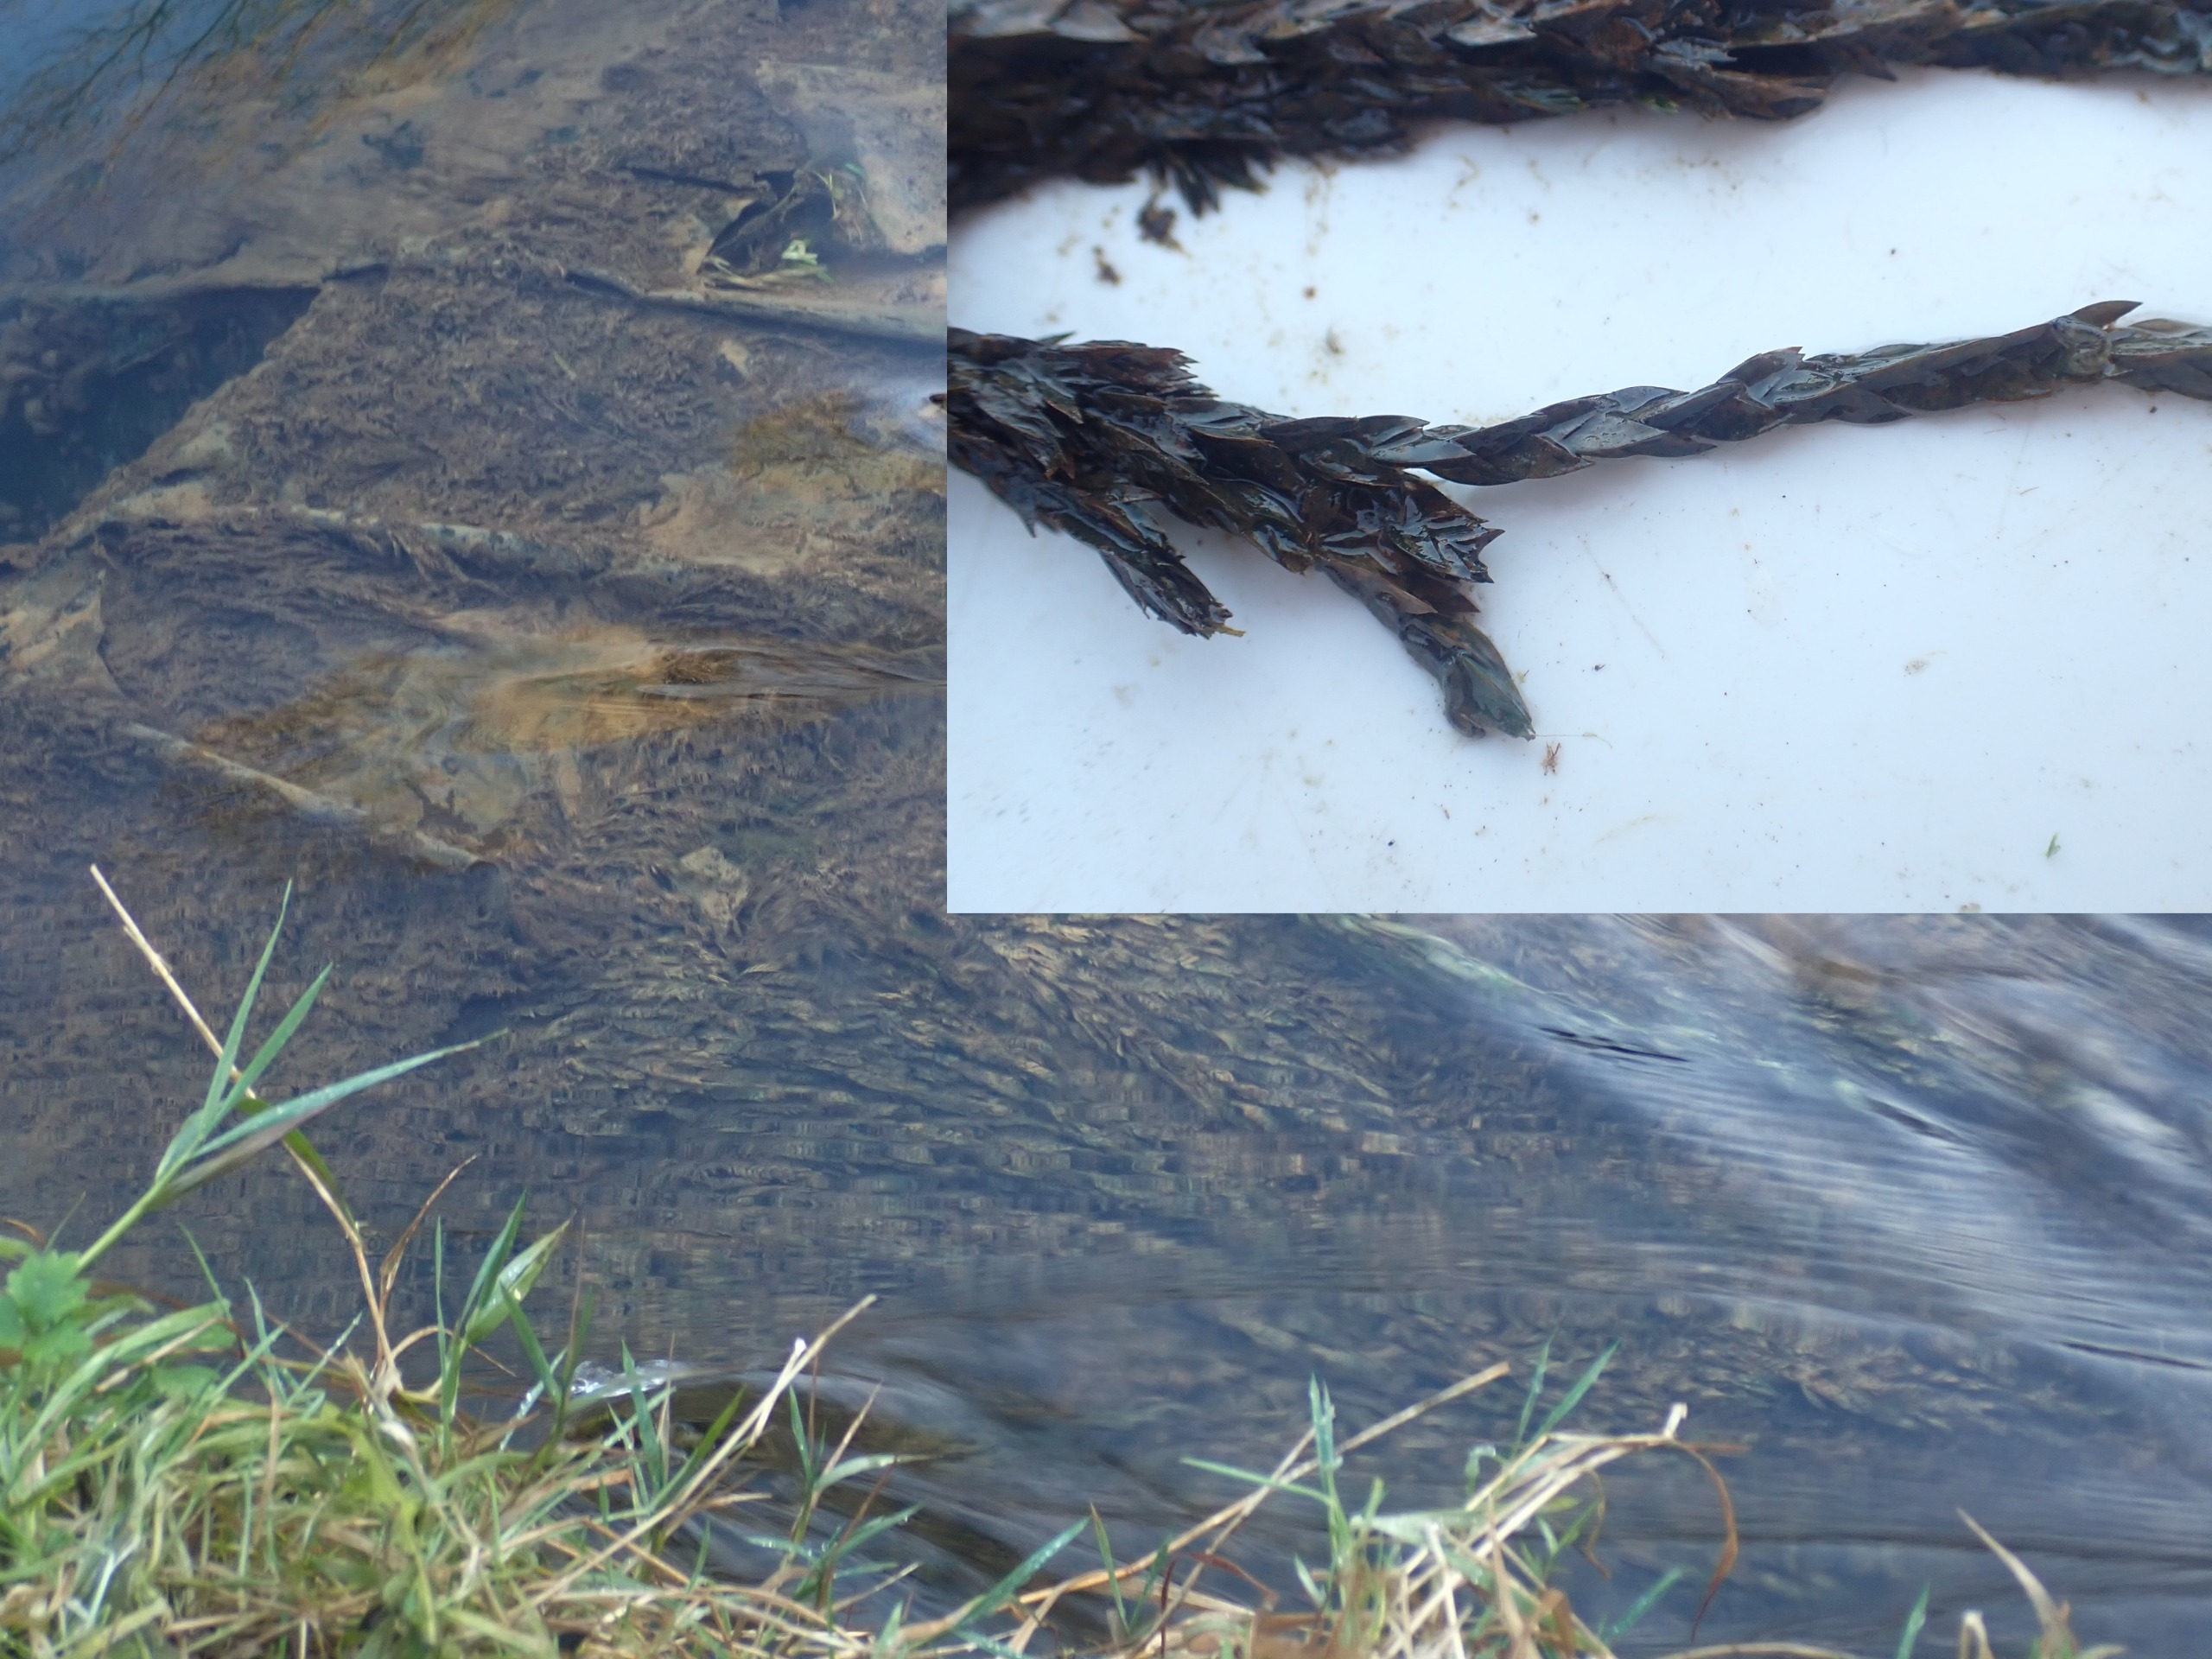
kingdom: Plantae
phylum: Bryophyta
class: Bryopsida
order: Hypnales
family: Fontinalaceae
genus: Fontinalis
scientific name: Fontinalis antipyretica
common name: Stor kildemos
